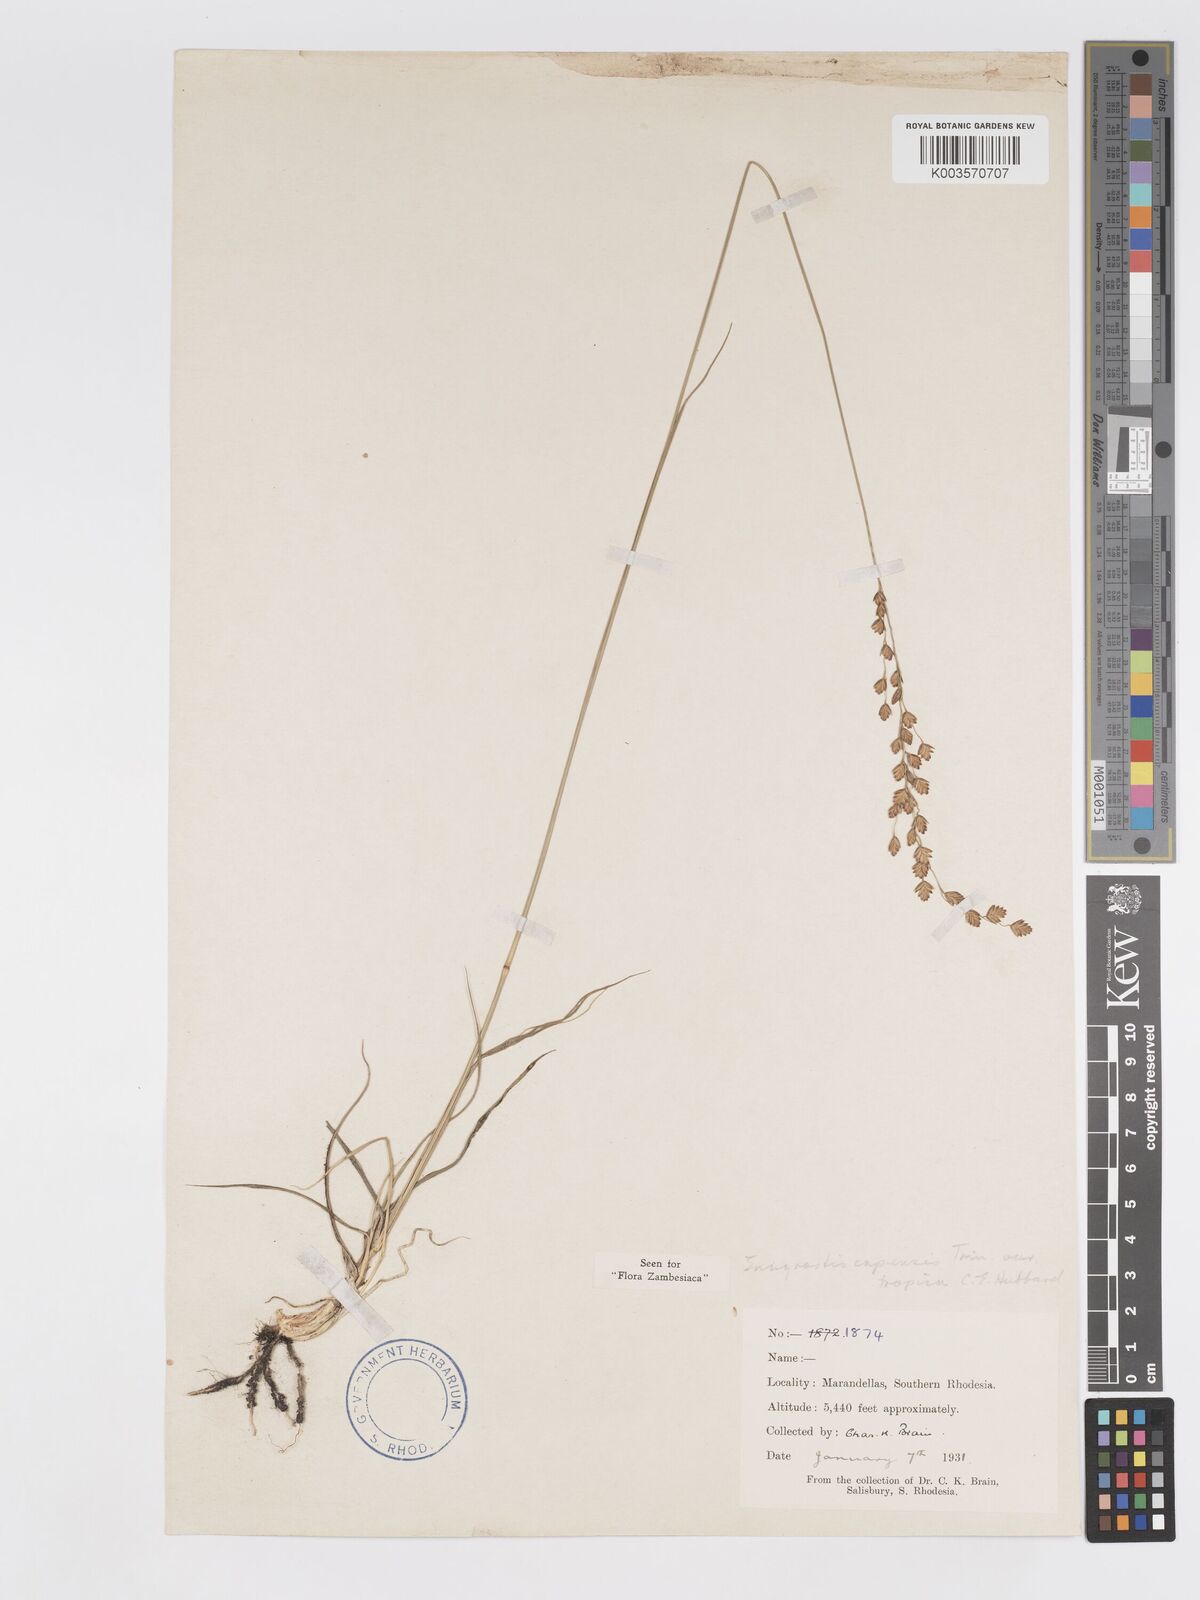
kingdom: Plantae
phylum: Tracheophyta
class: Liliopsida
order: Poales
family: Poaceae
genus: Eragrostis
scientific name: Eragrostis capensis
